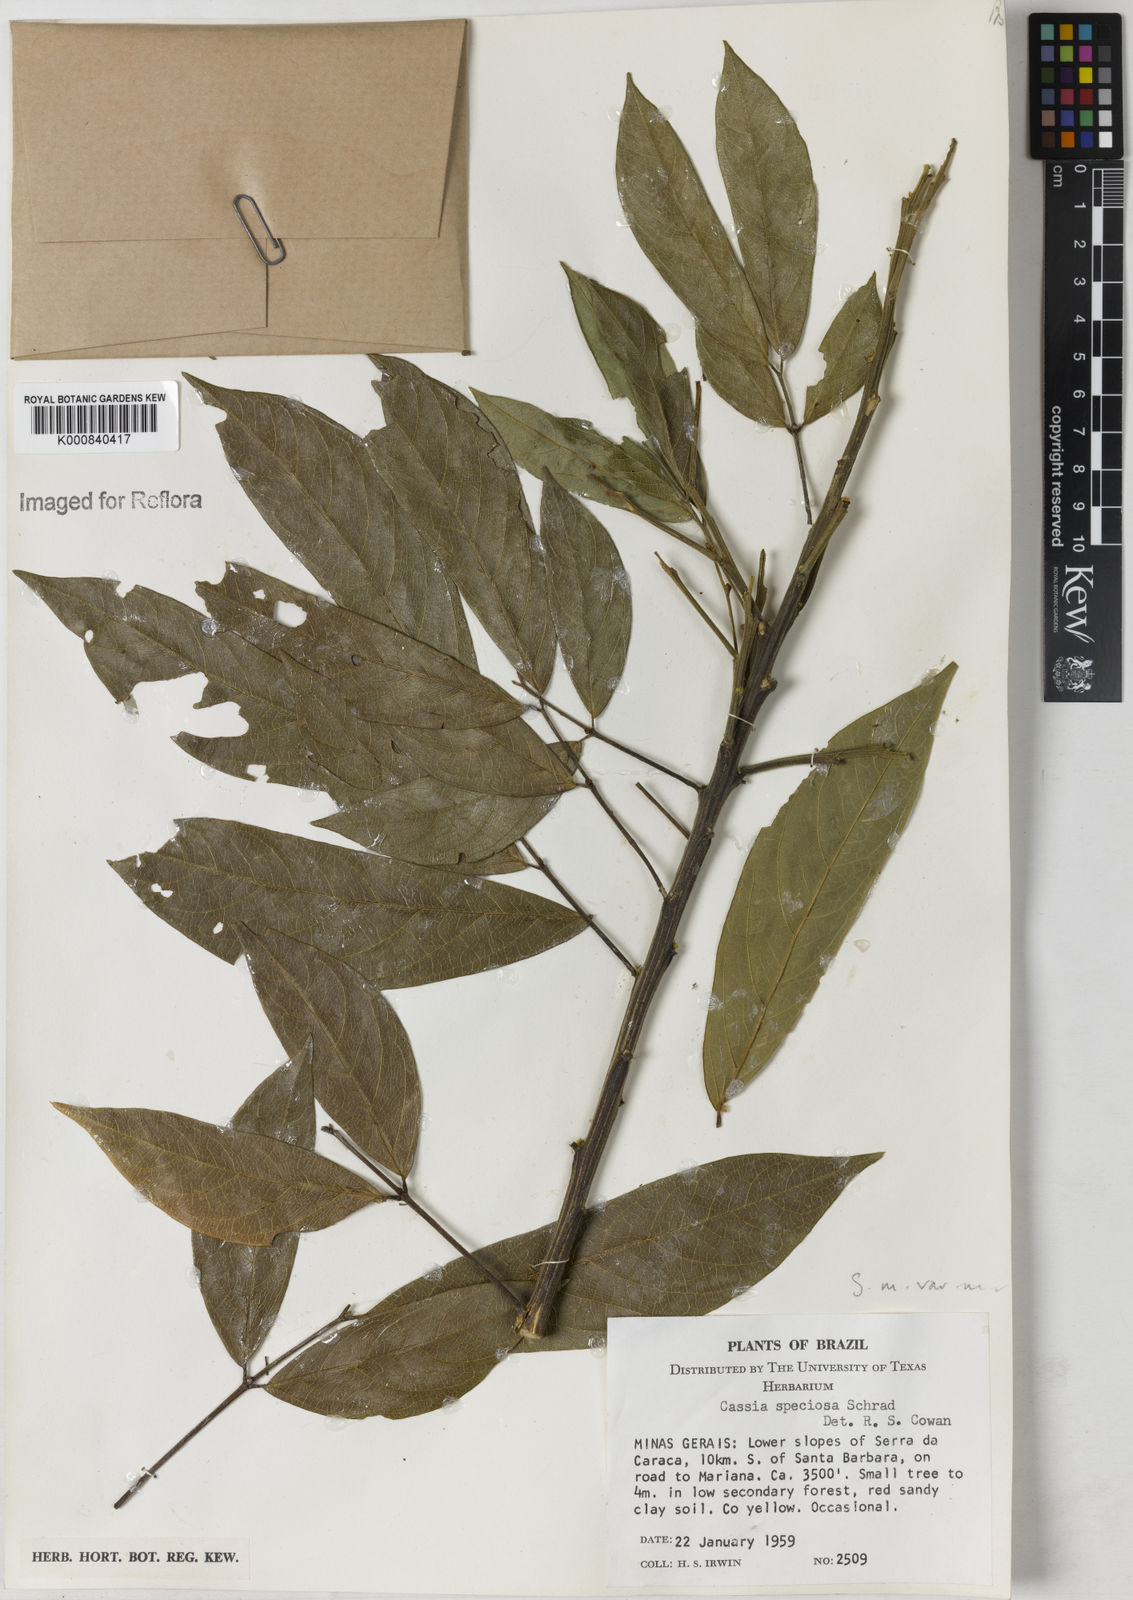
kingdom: Plantae
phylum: Tracheophyta
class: Magnoliopsida
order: Fabales
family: Fabaceae
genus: Senna
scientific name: Senna macranthera
